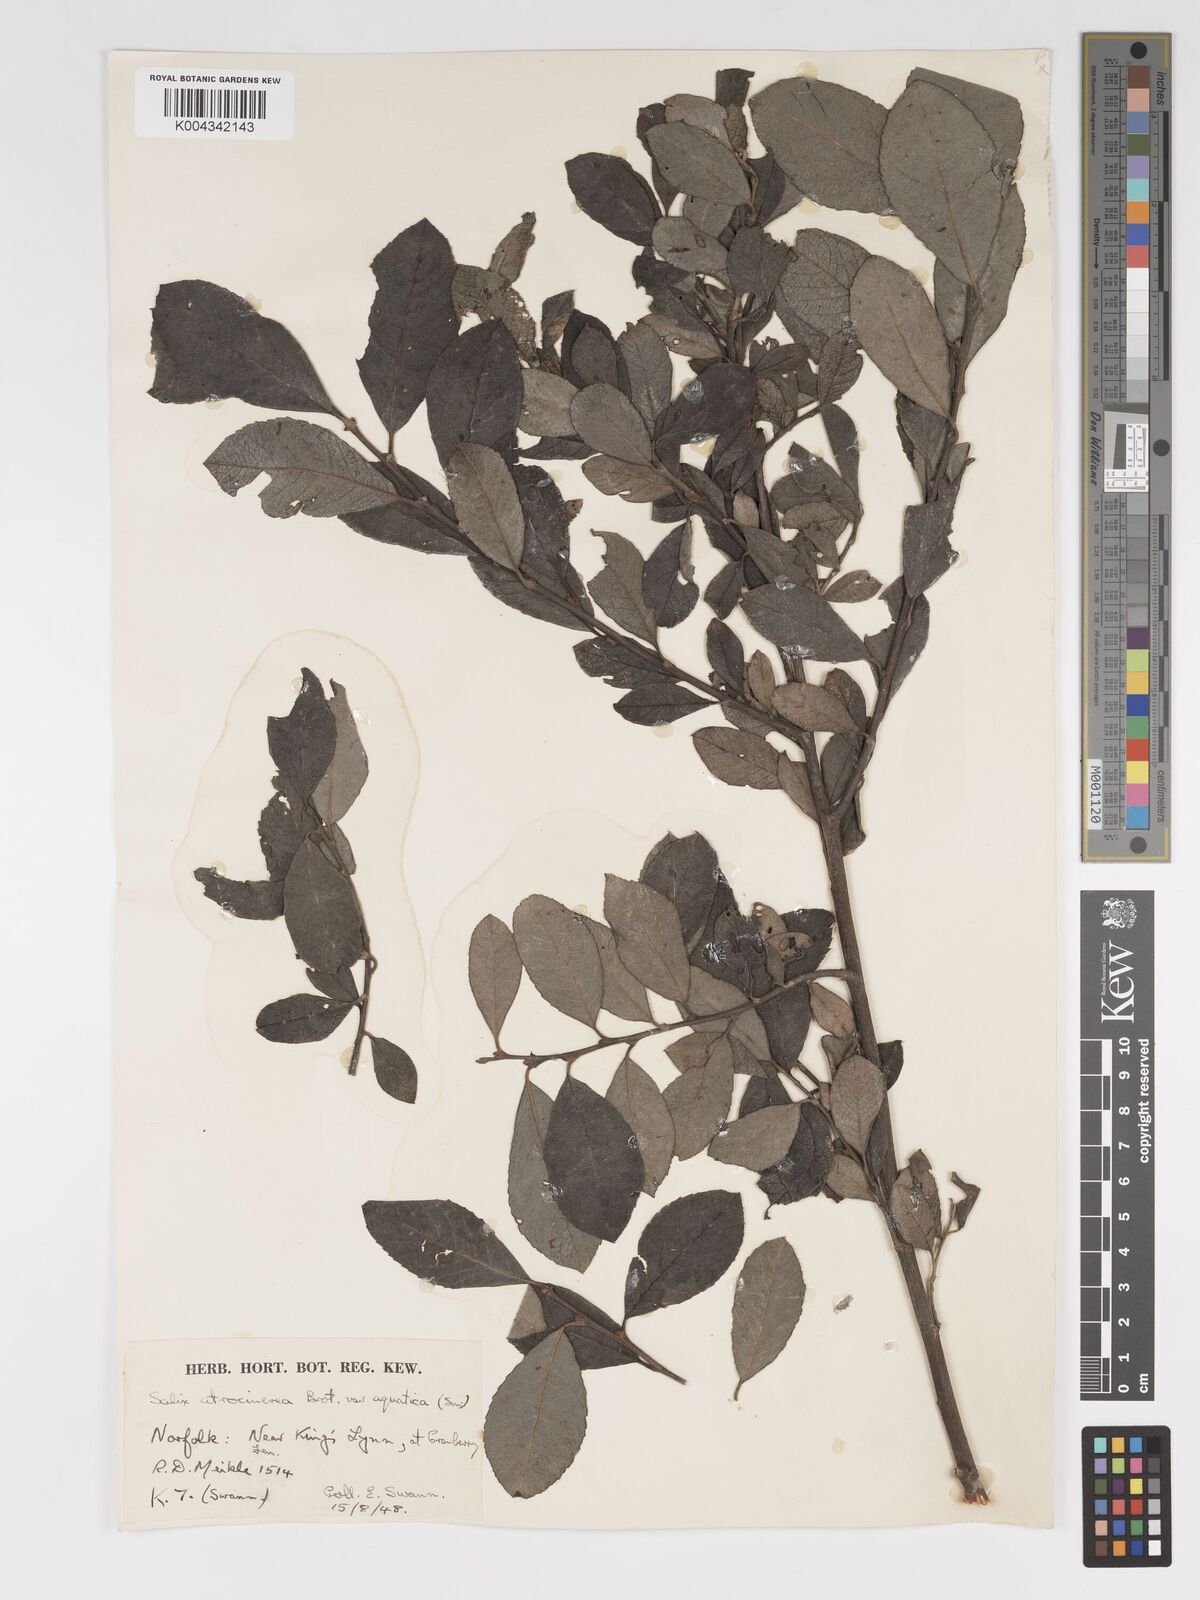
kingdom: Plantae
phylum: Tracheophyta
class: Magnoliopsida
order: Malpighiales
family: Salicaceae
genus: Salix
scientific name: Salix
